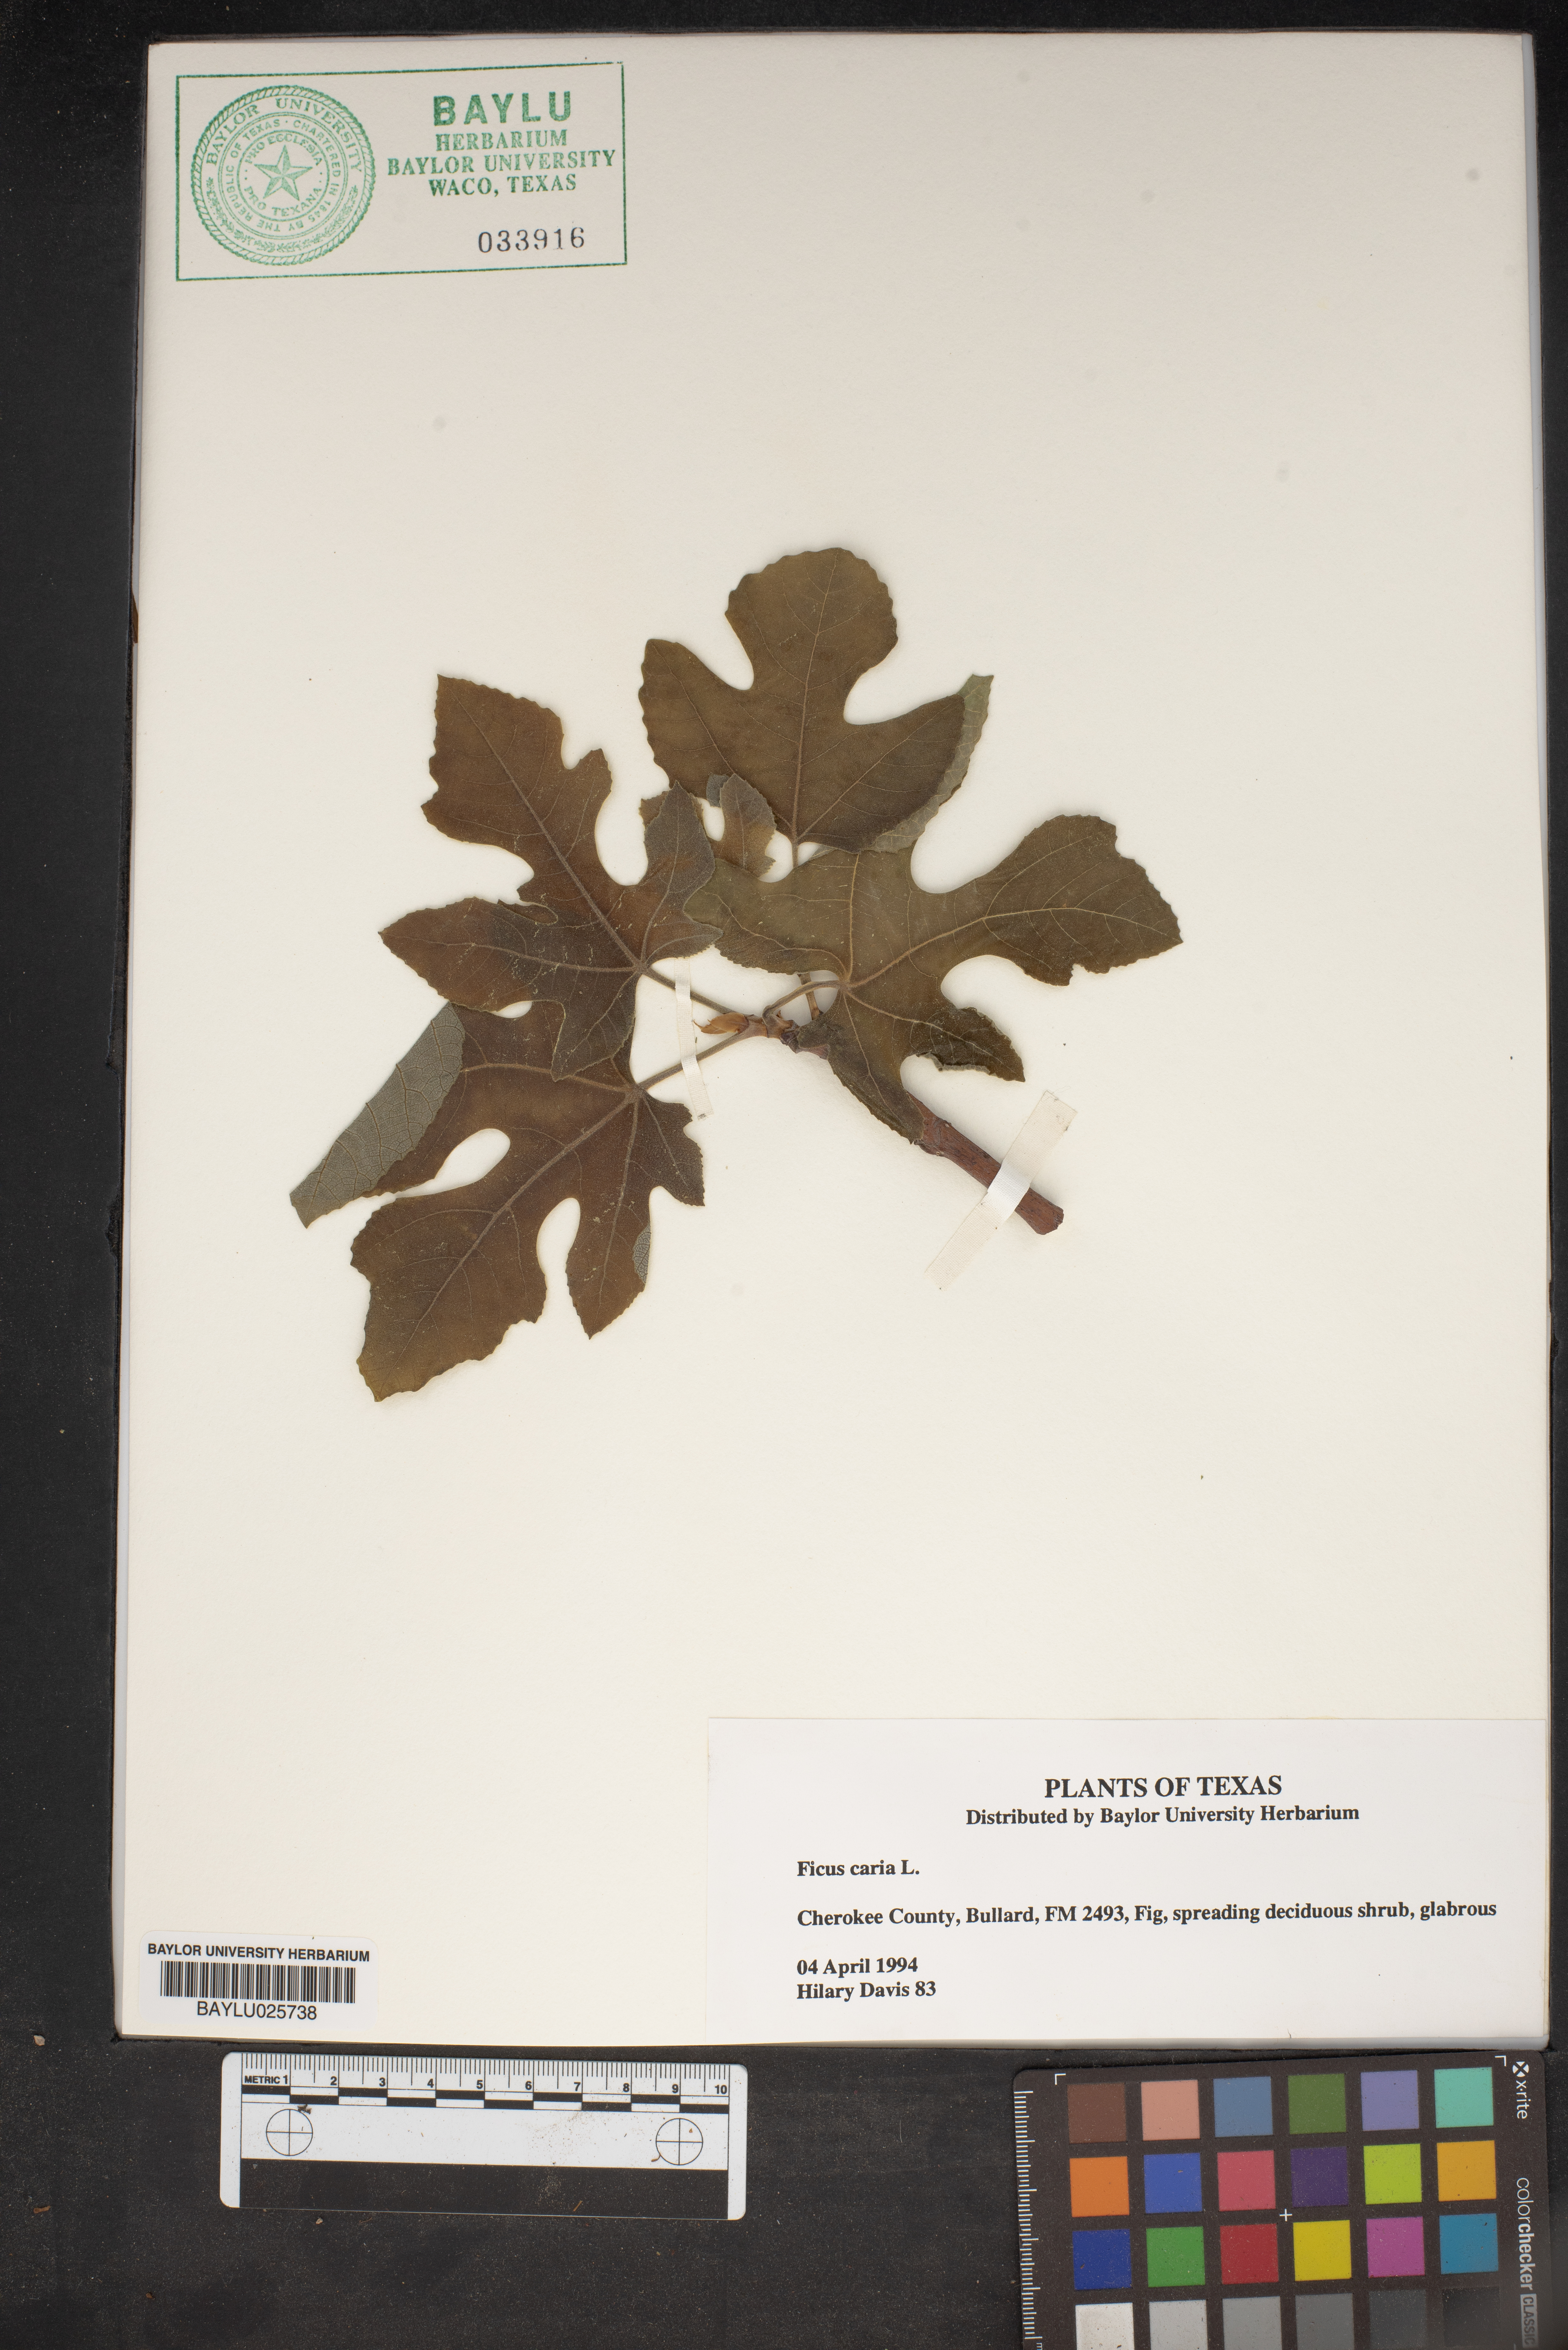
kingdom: Plantae
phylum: Tracheophyta
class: Magnoliopsida
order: Rosales
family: Moraceae
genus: Ficus
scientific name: Ficus carica
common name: Fig
